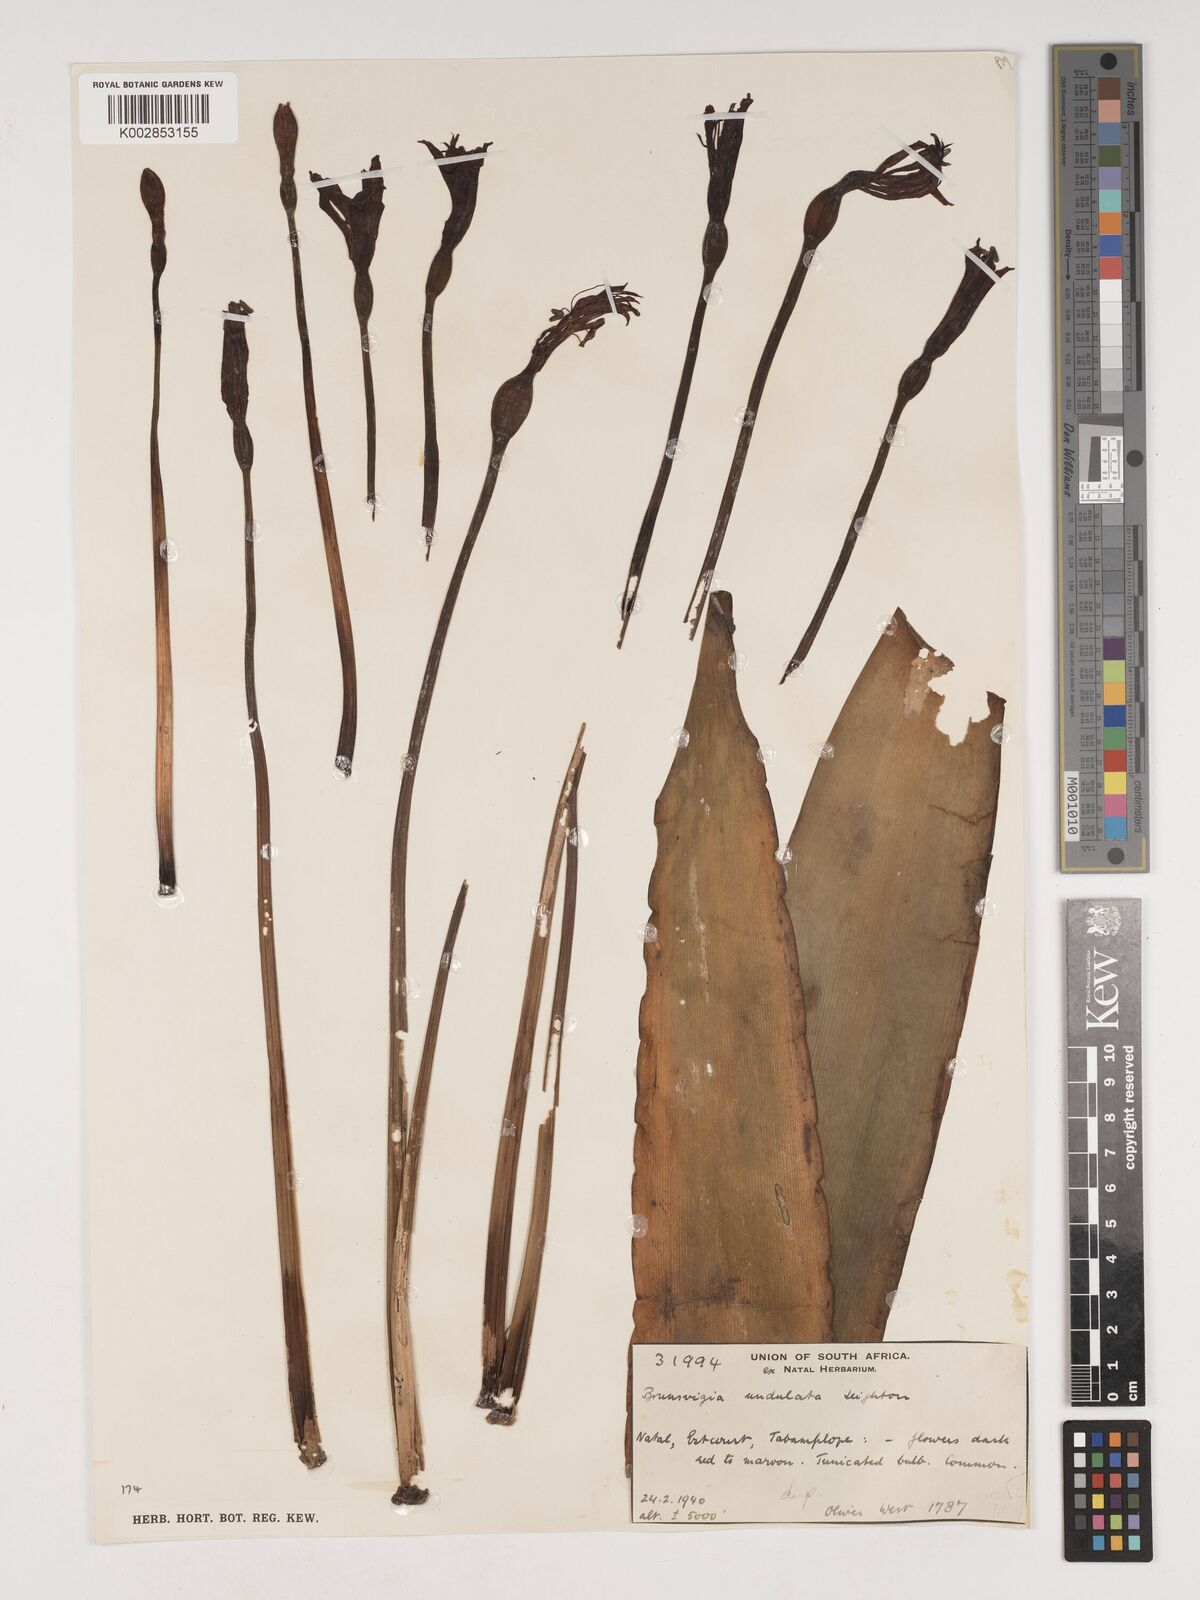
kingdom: Plantae
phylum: Tracheophyta
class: Liliopsida
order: Asparagales
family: Amaryllidaceae
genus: Brunsvigia
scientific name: Brunsvigia undulata
